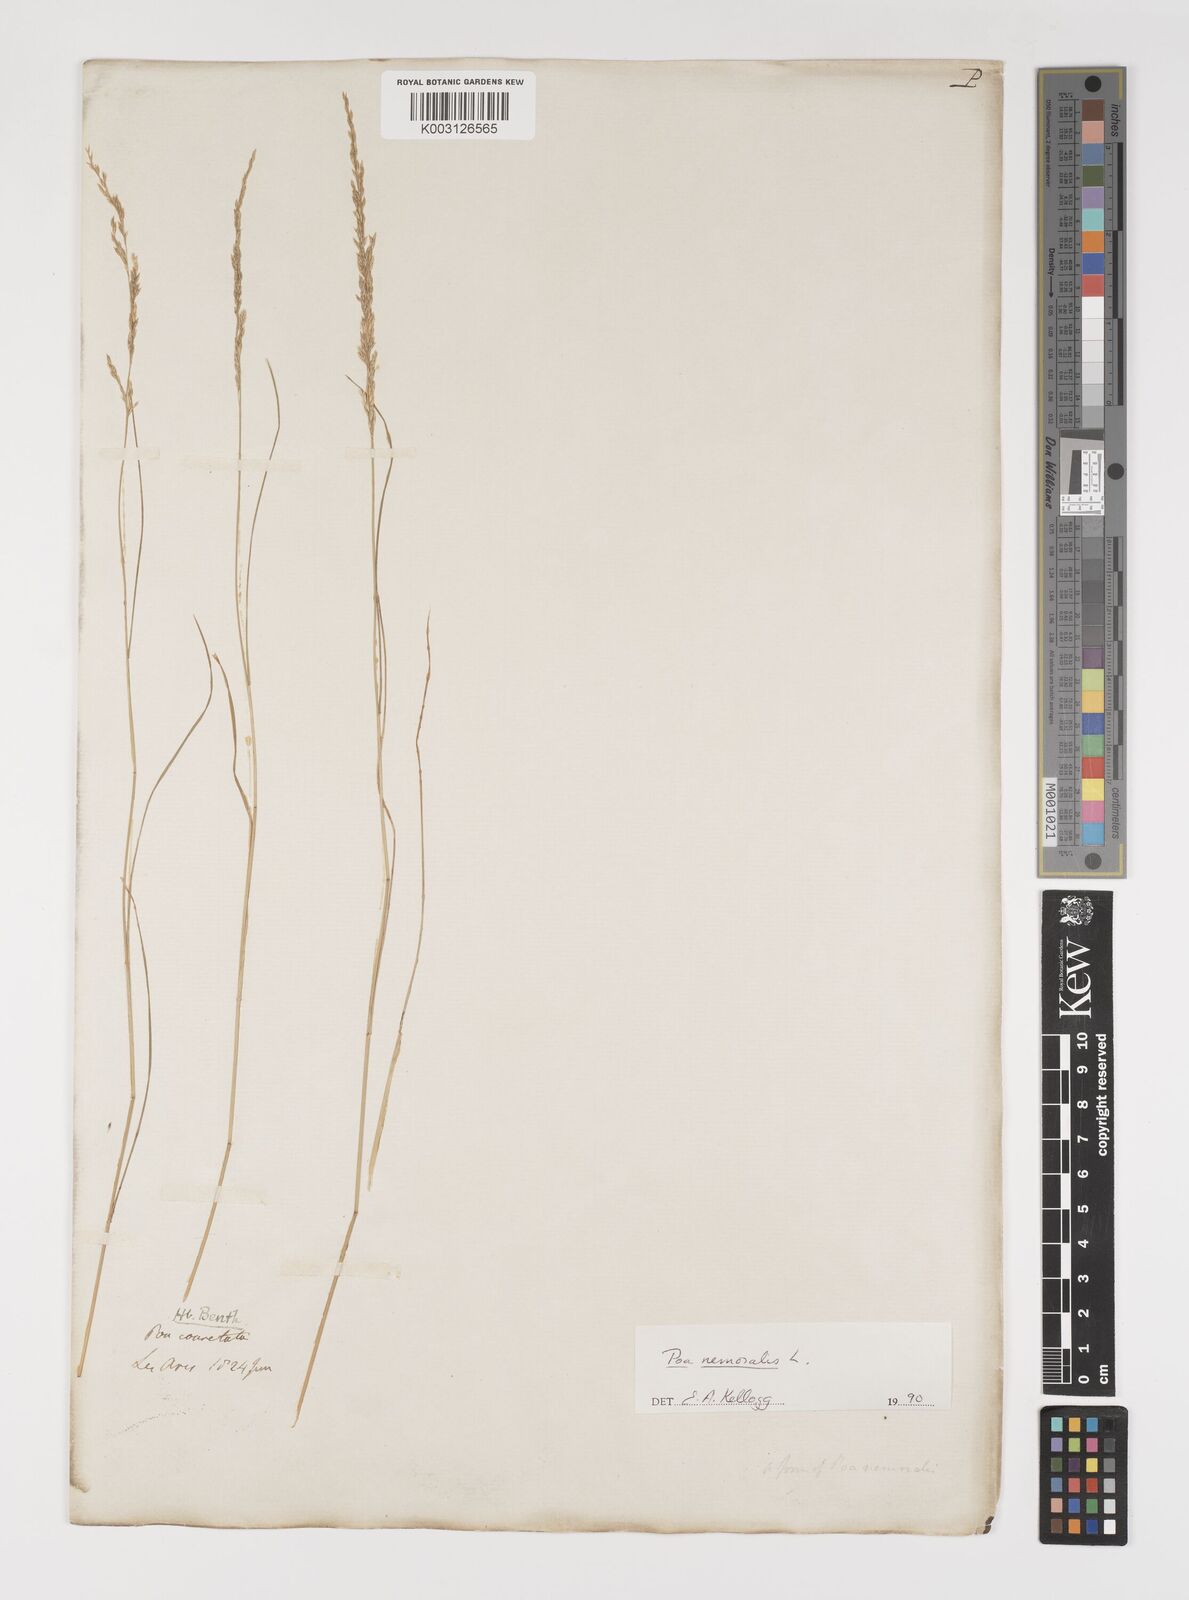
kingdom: Plantae
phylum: Tracheophyta
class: Liliopsida
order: Poales
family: Poaceae
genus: Poa
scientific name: Poa nemoralis
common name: Wood bluegrass
